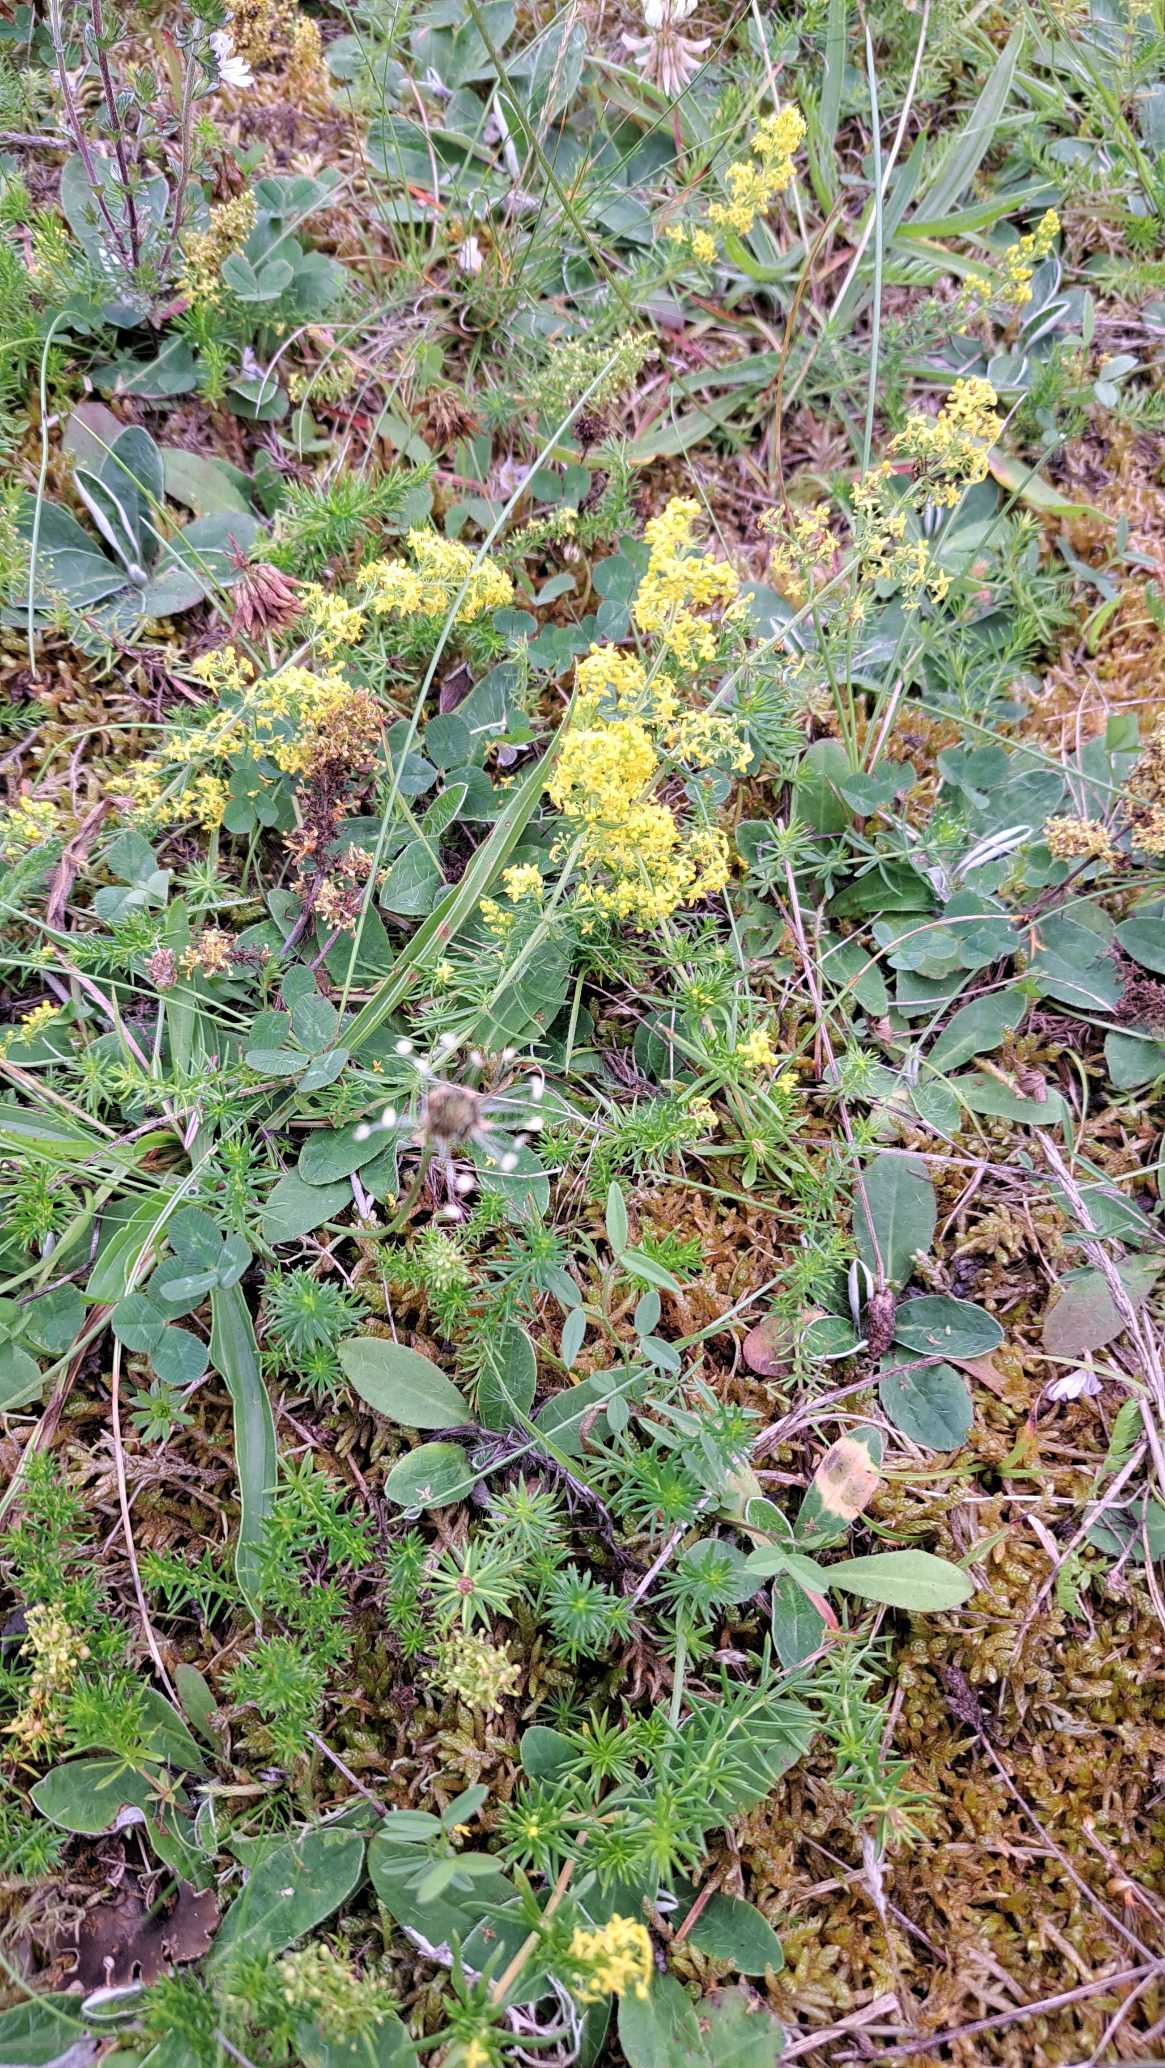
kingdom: Plantae
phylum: Tracheophyta
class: Magnoliopsida
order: Gentianales
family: Rubiaceae
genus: Galium
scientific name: Galium verum
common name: Gul snerre
